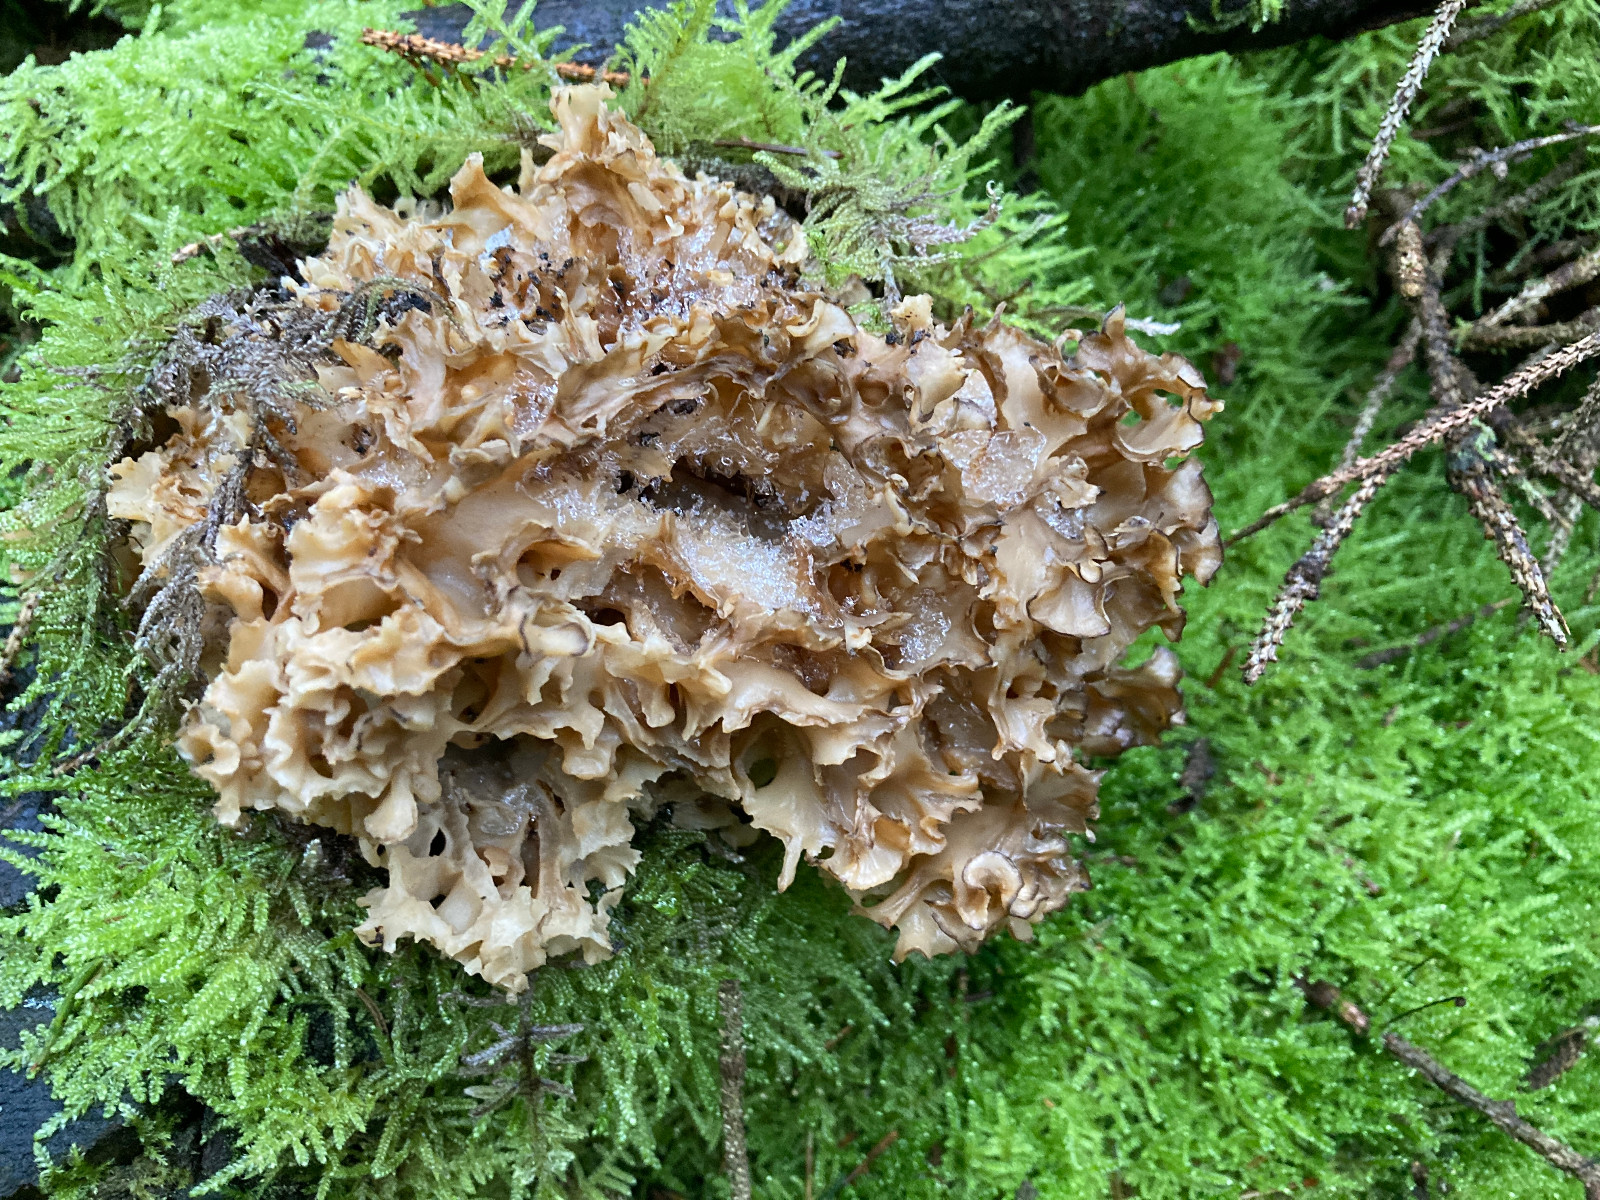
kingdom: Fungi
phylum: Basidiomycota
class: Agaricomycetes
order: Polyporales
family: Sparassidaceae
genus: Sparassis
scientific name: Sparassis crispa
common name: kruset blomkålssvamp
